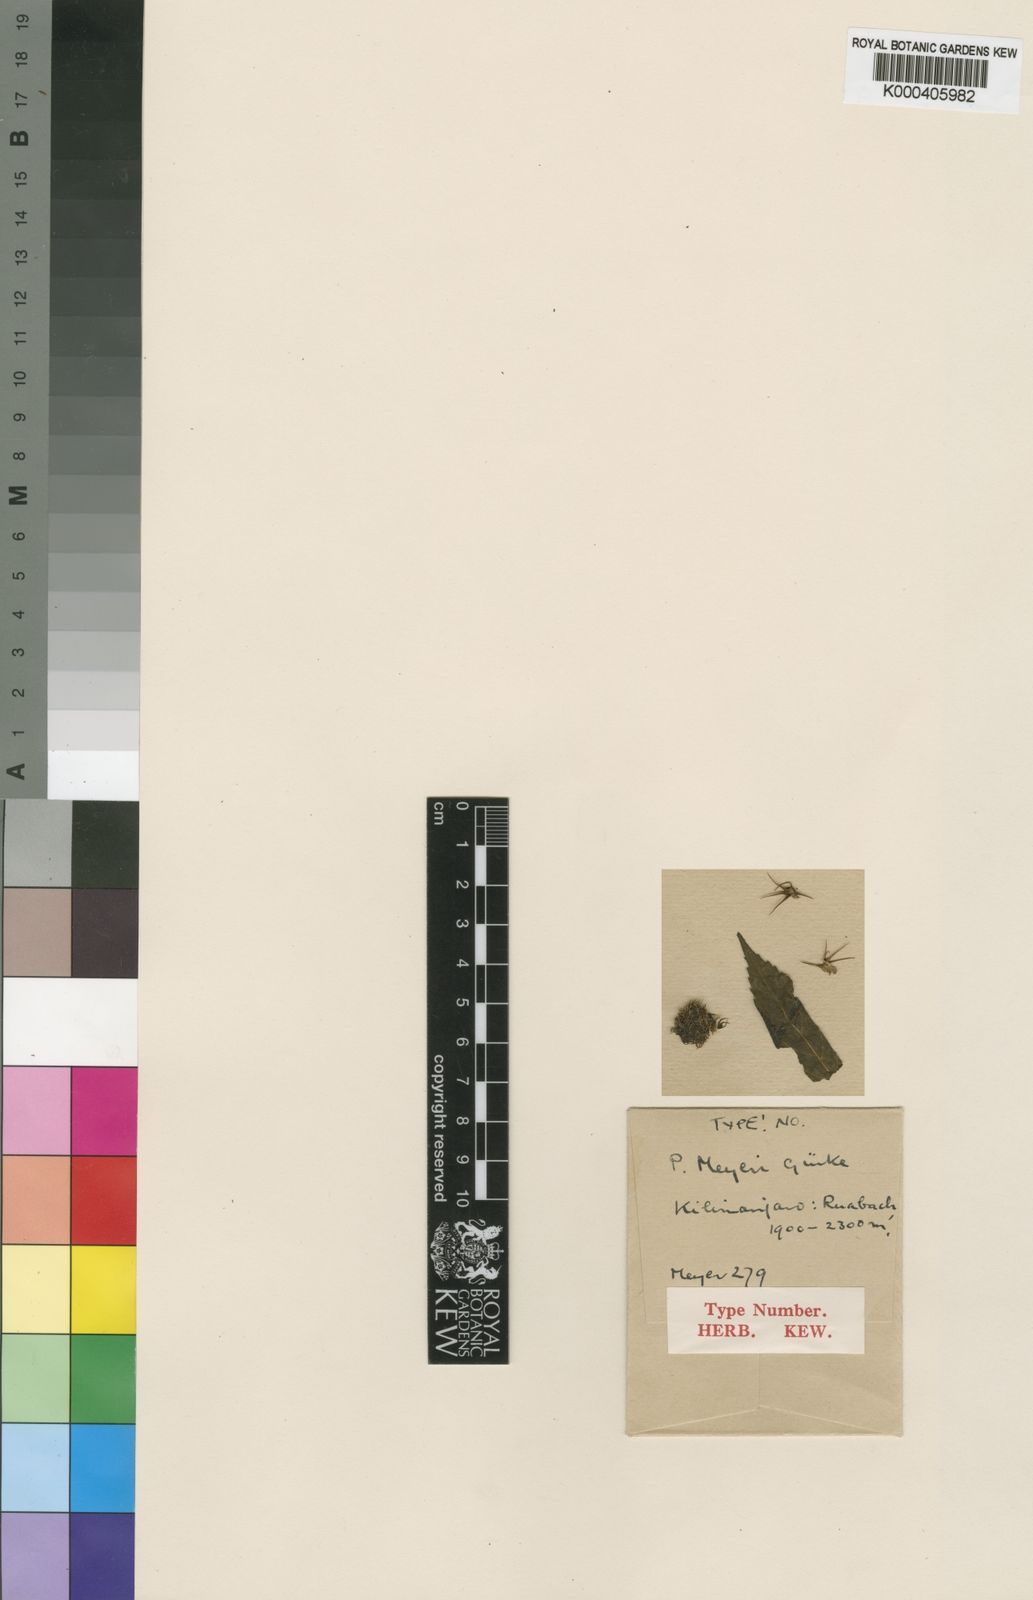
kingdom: Plantae
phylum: Tracheophyta
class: Magnoliopsida
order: Lamiales
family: Lamiaceae
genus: Coleus
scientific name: Coleus
